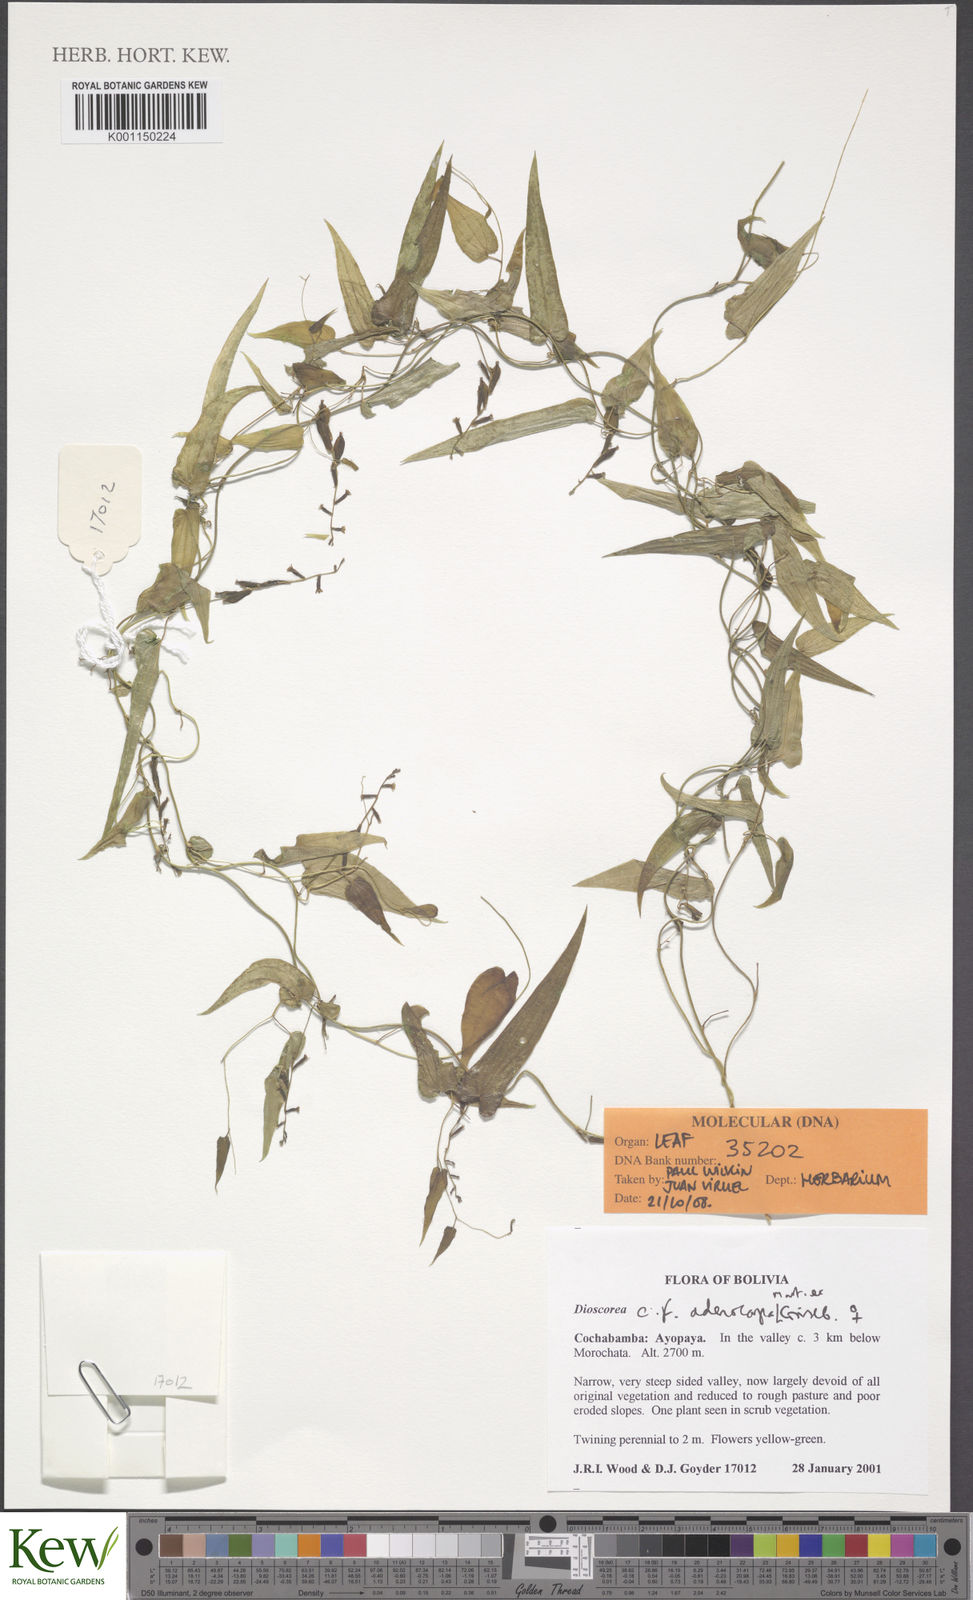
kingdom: Plantae
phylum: Tracheophyta
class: Liliopsida
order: Dioscoreales
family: Dioscoreaceae
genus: Dioscorea
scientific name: Dioscorea
